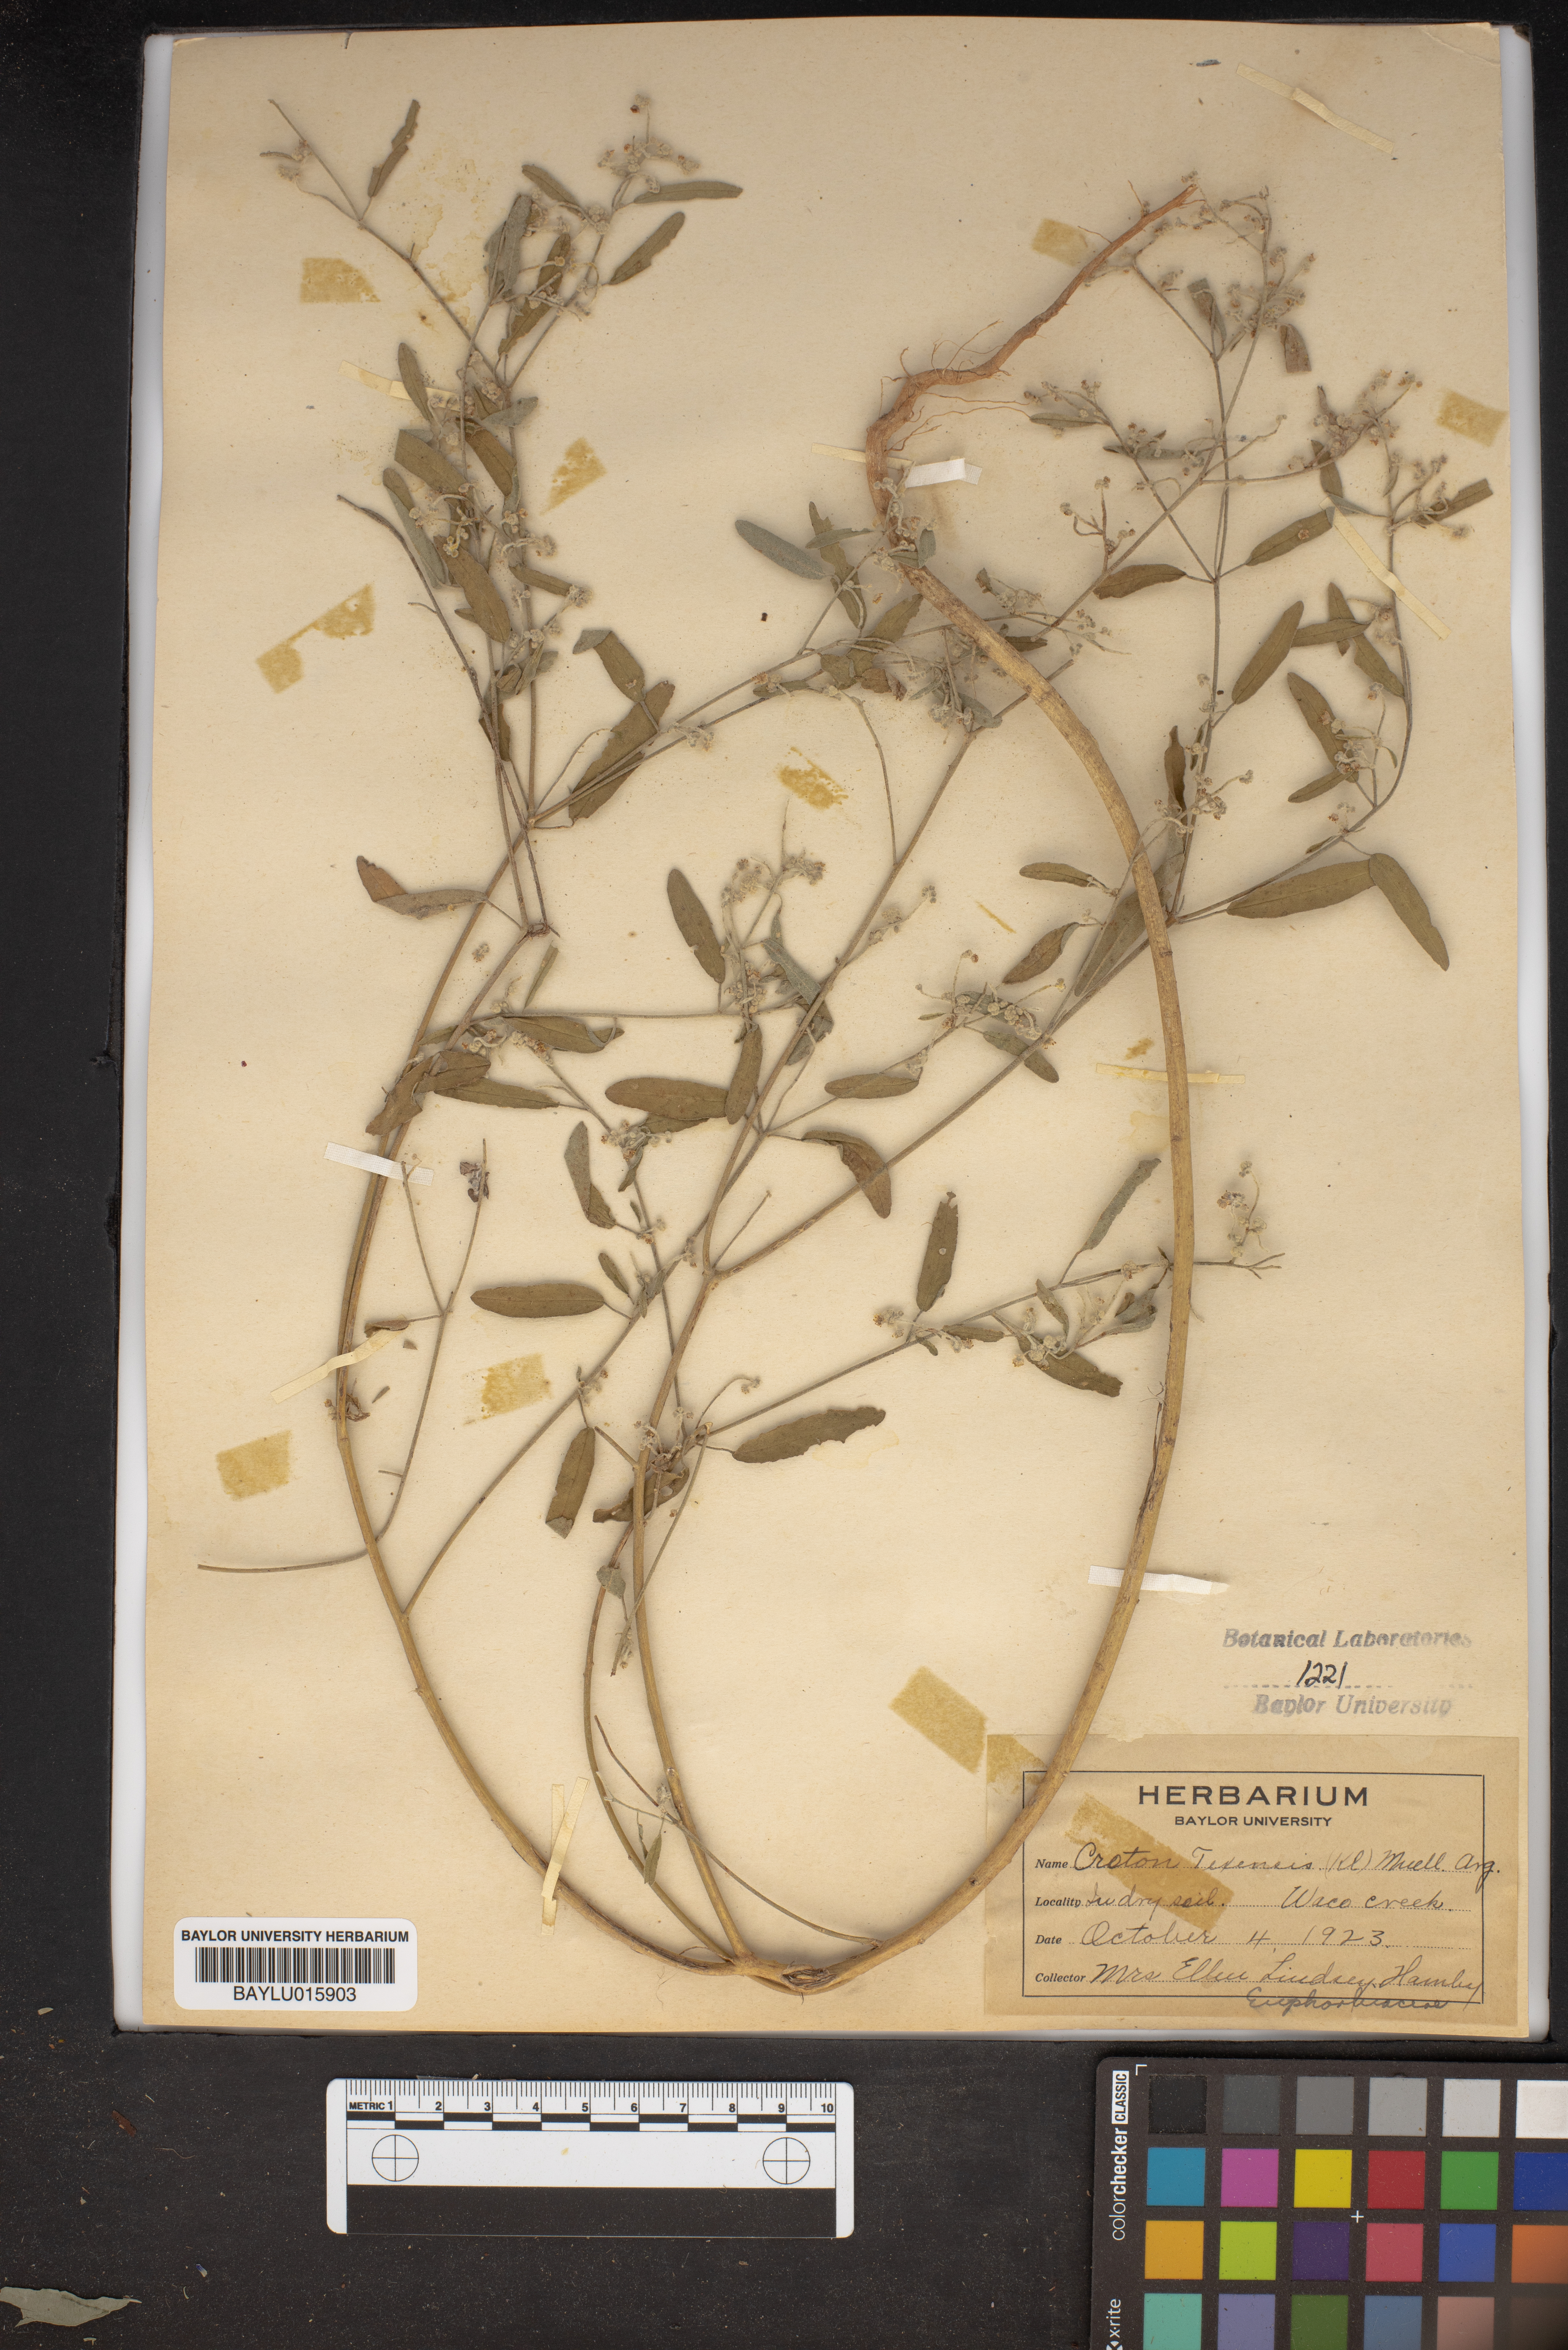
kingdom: Plantae
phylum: Tracheophyta
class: Magnoliopsida
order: Malpighiales
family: Euphorbiaceae
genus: Croton
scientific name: Croton texensis
